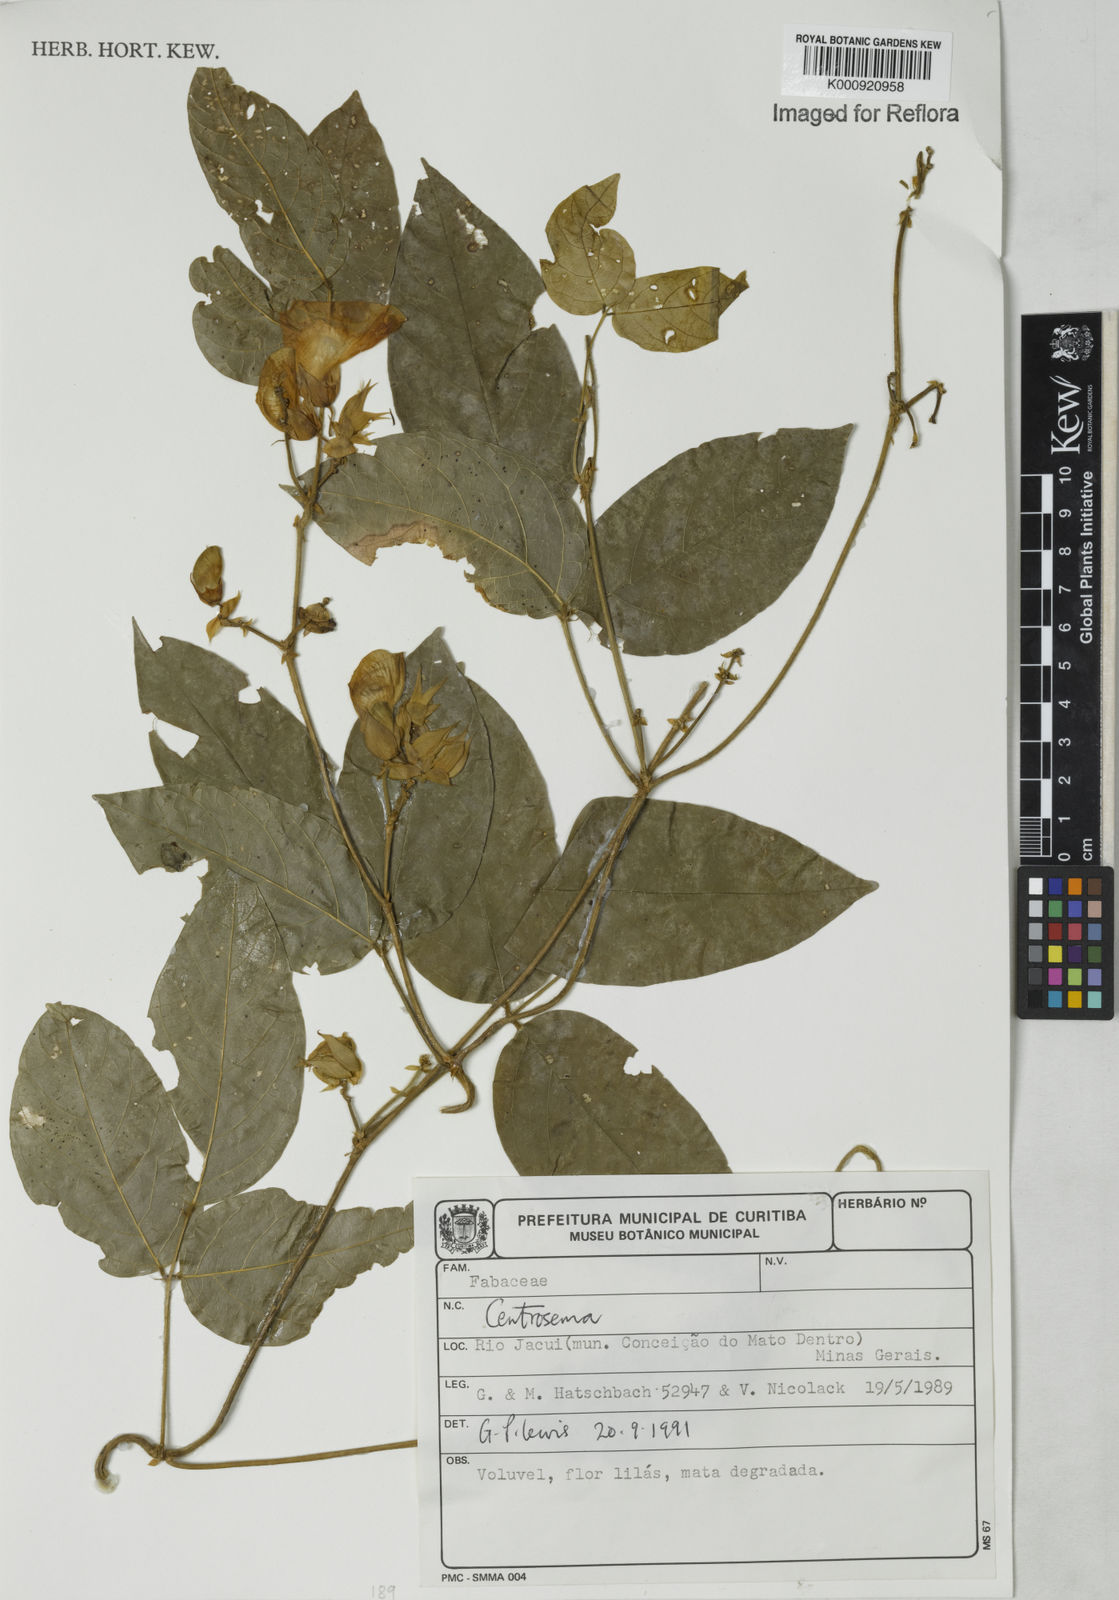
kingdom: Plantae
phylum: Tracheophyta
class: Magnoliopsida
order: Fabales
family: Fabaceae
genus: Centrosema
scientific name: Centrosema
